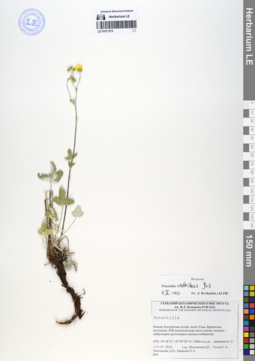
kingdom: Plantae
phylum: Tracheophyta
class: Magnoliopsida
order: Rosales
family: Rosaceae
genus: Potentilla
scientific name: Potentilla crebridens
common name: Congested cinquefoil
